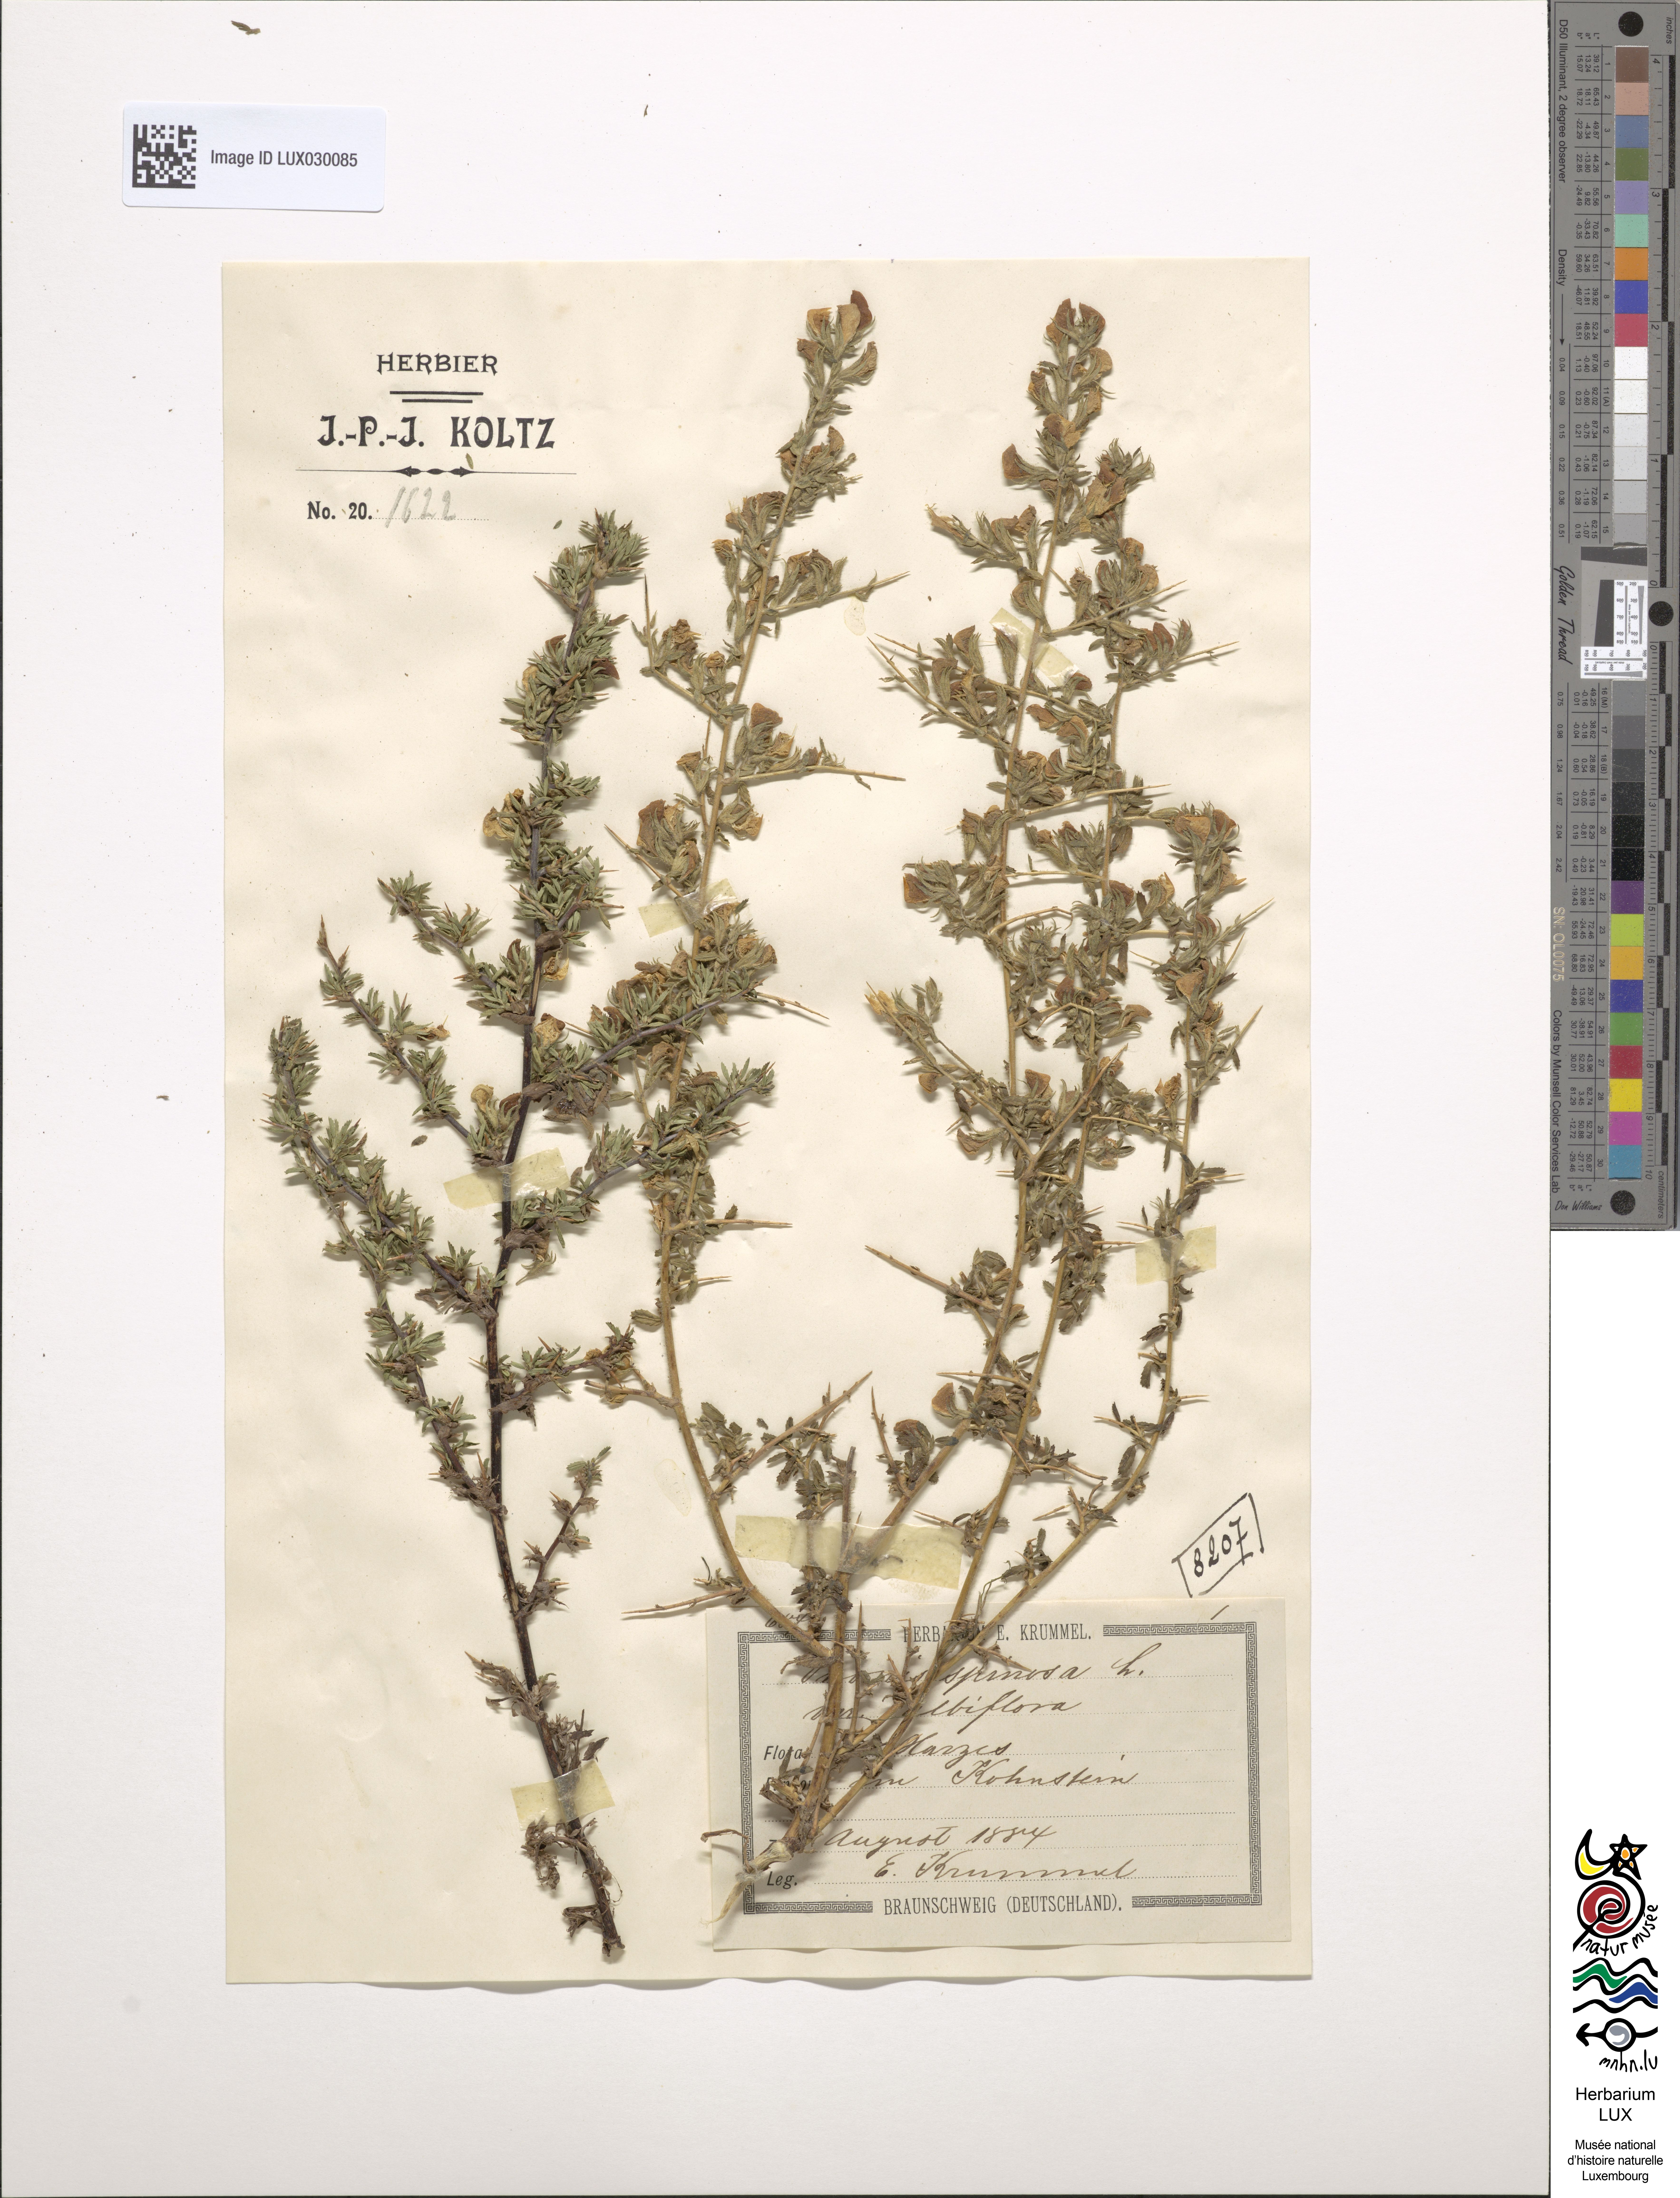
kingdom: Plantae
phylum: Tracheophyta
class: Magnoliopsida
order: Fabales
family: Fabaceae
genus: Ononis
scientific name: Ononis spinosa
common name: Spiny restharrow
